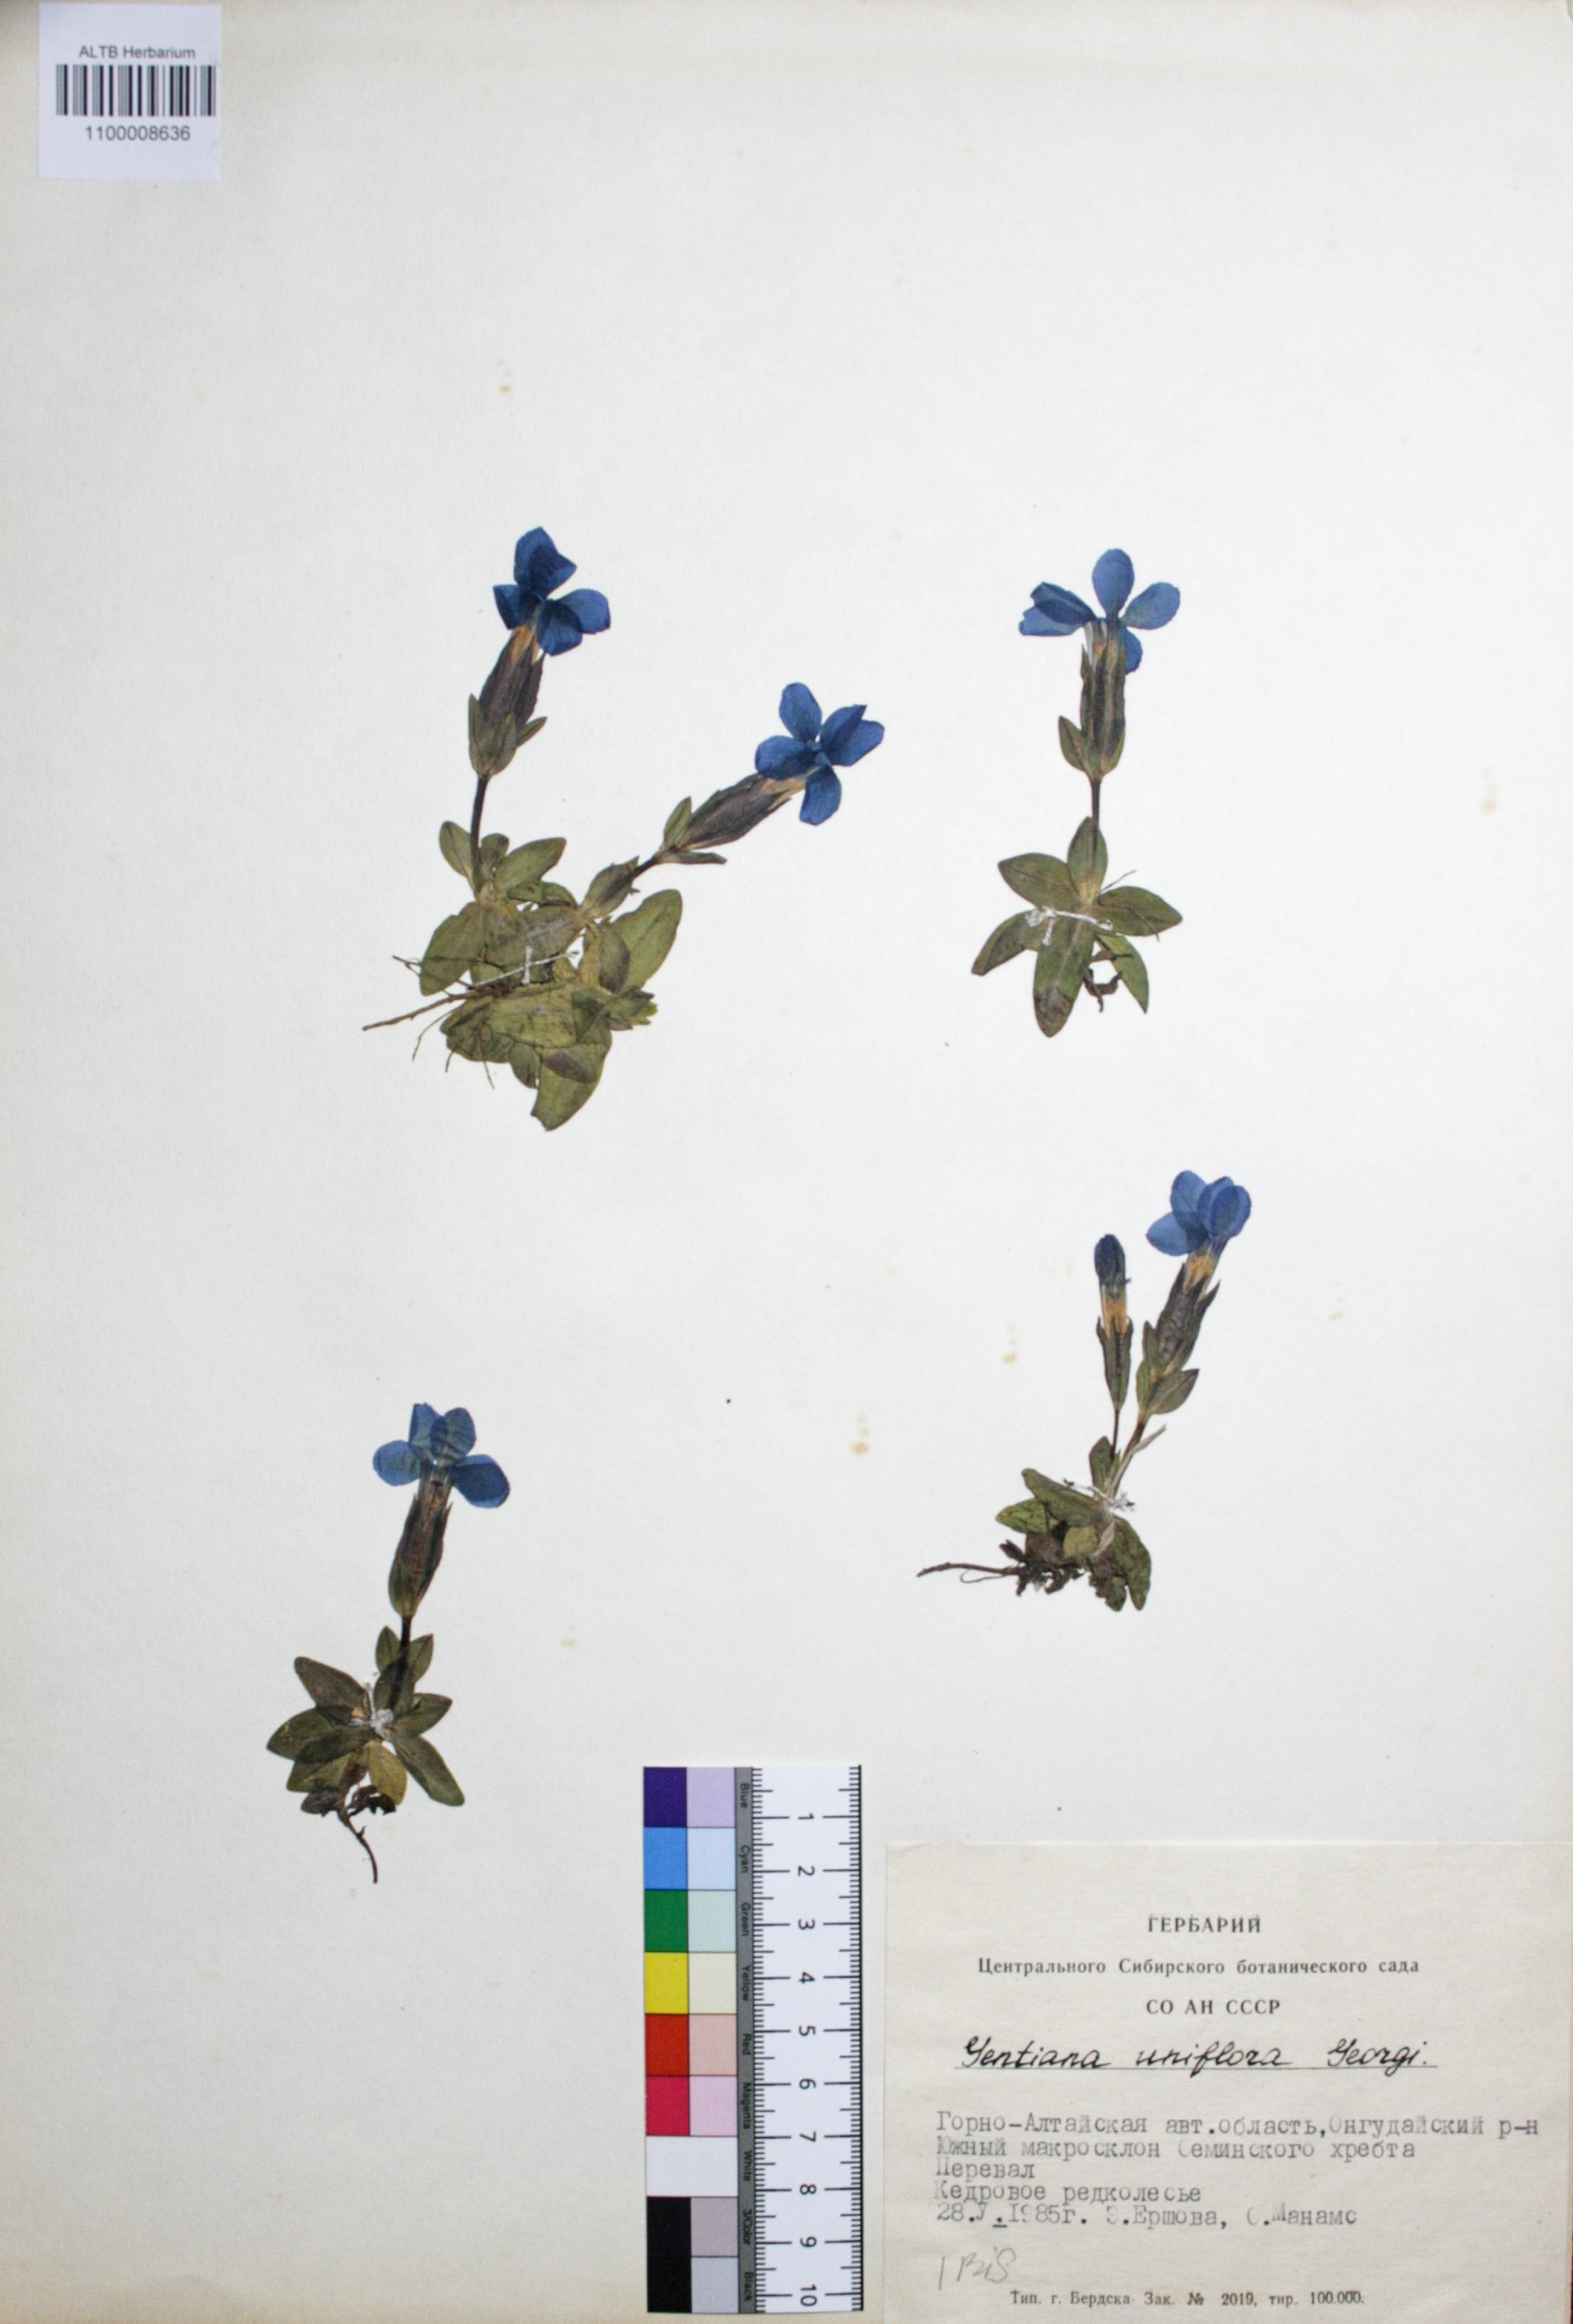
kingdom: Plantae
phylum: Tracheophyta
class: Magnoliopsida
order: Gentianales
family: Gentianaceae
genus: Gentiana
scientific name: Gentiana uniflora
